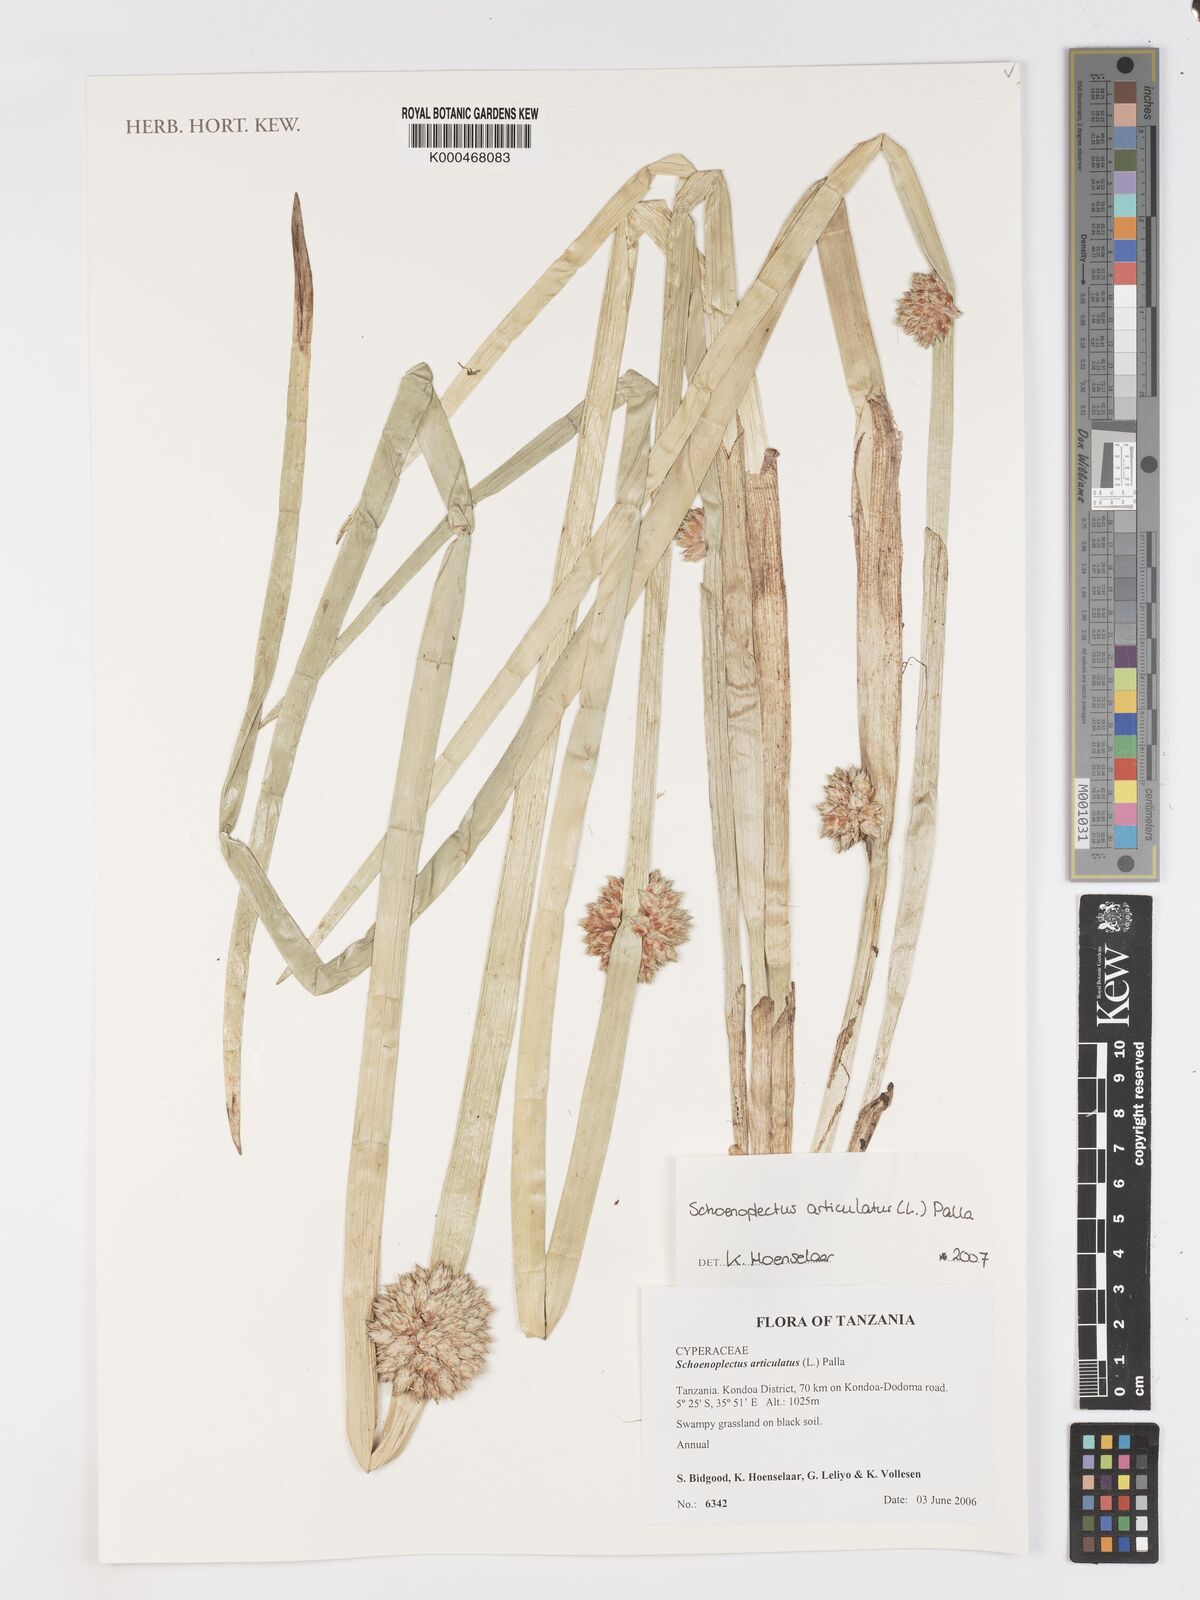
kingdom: Plantae
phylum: Tracheophyta
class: Liliopsida
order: Poales
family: Cyperaceae
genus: Schoenoplectiella
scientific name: Schoenoplectiella articulata
